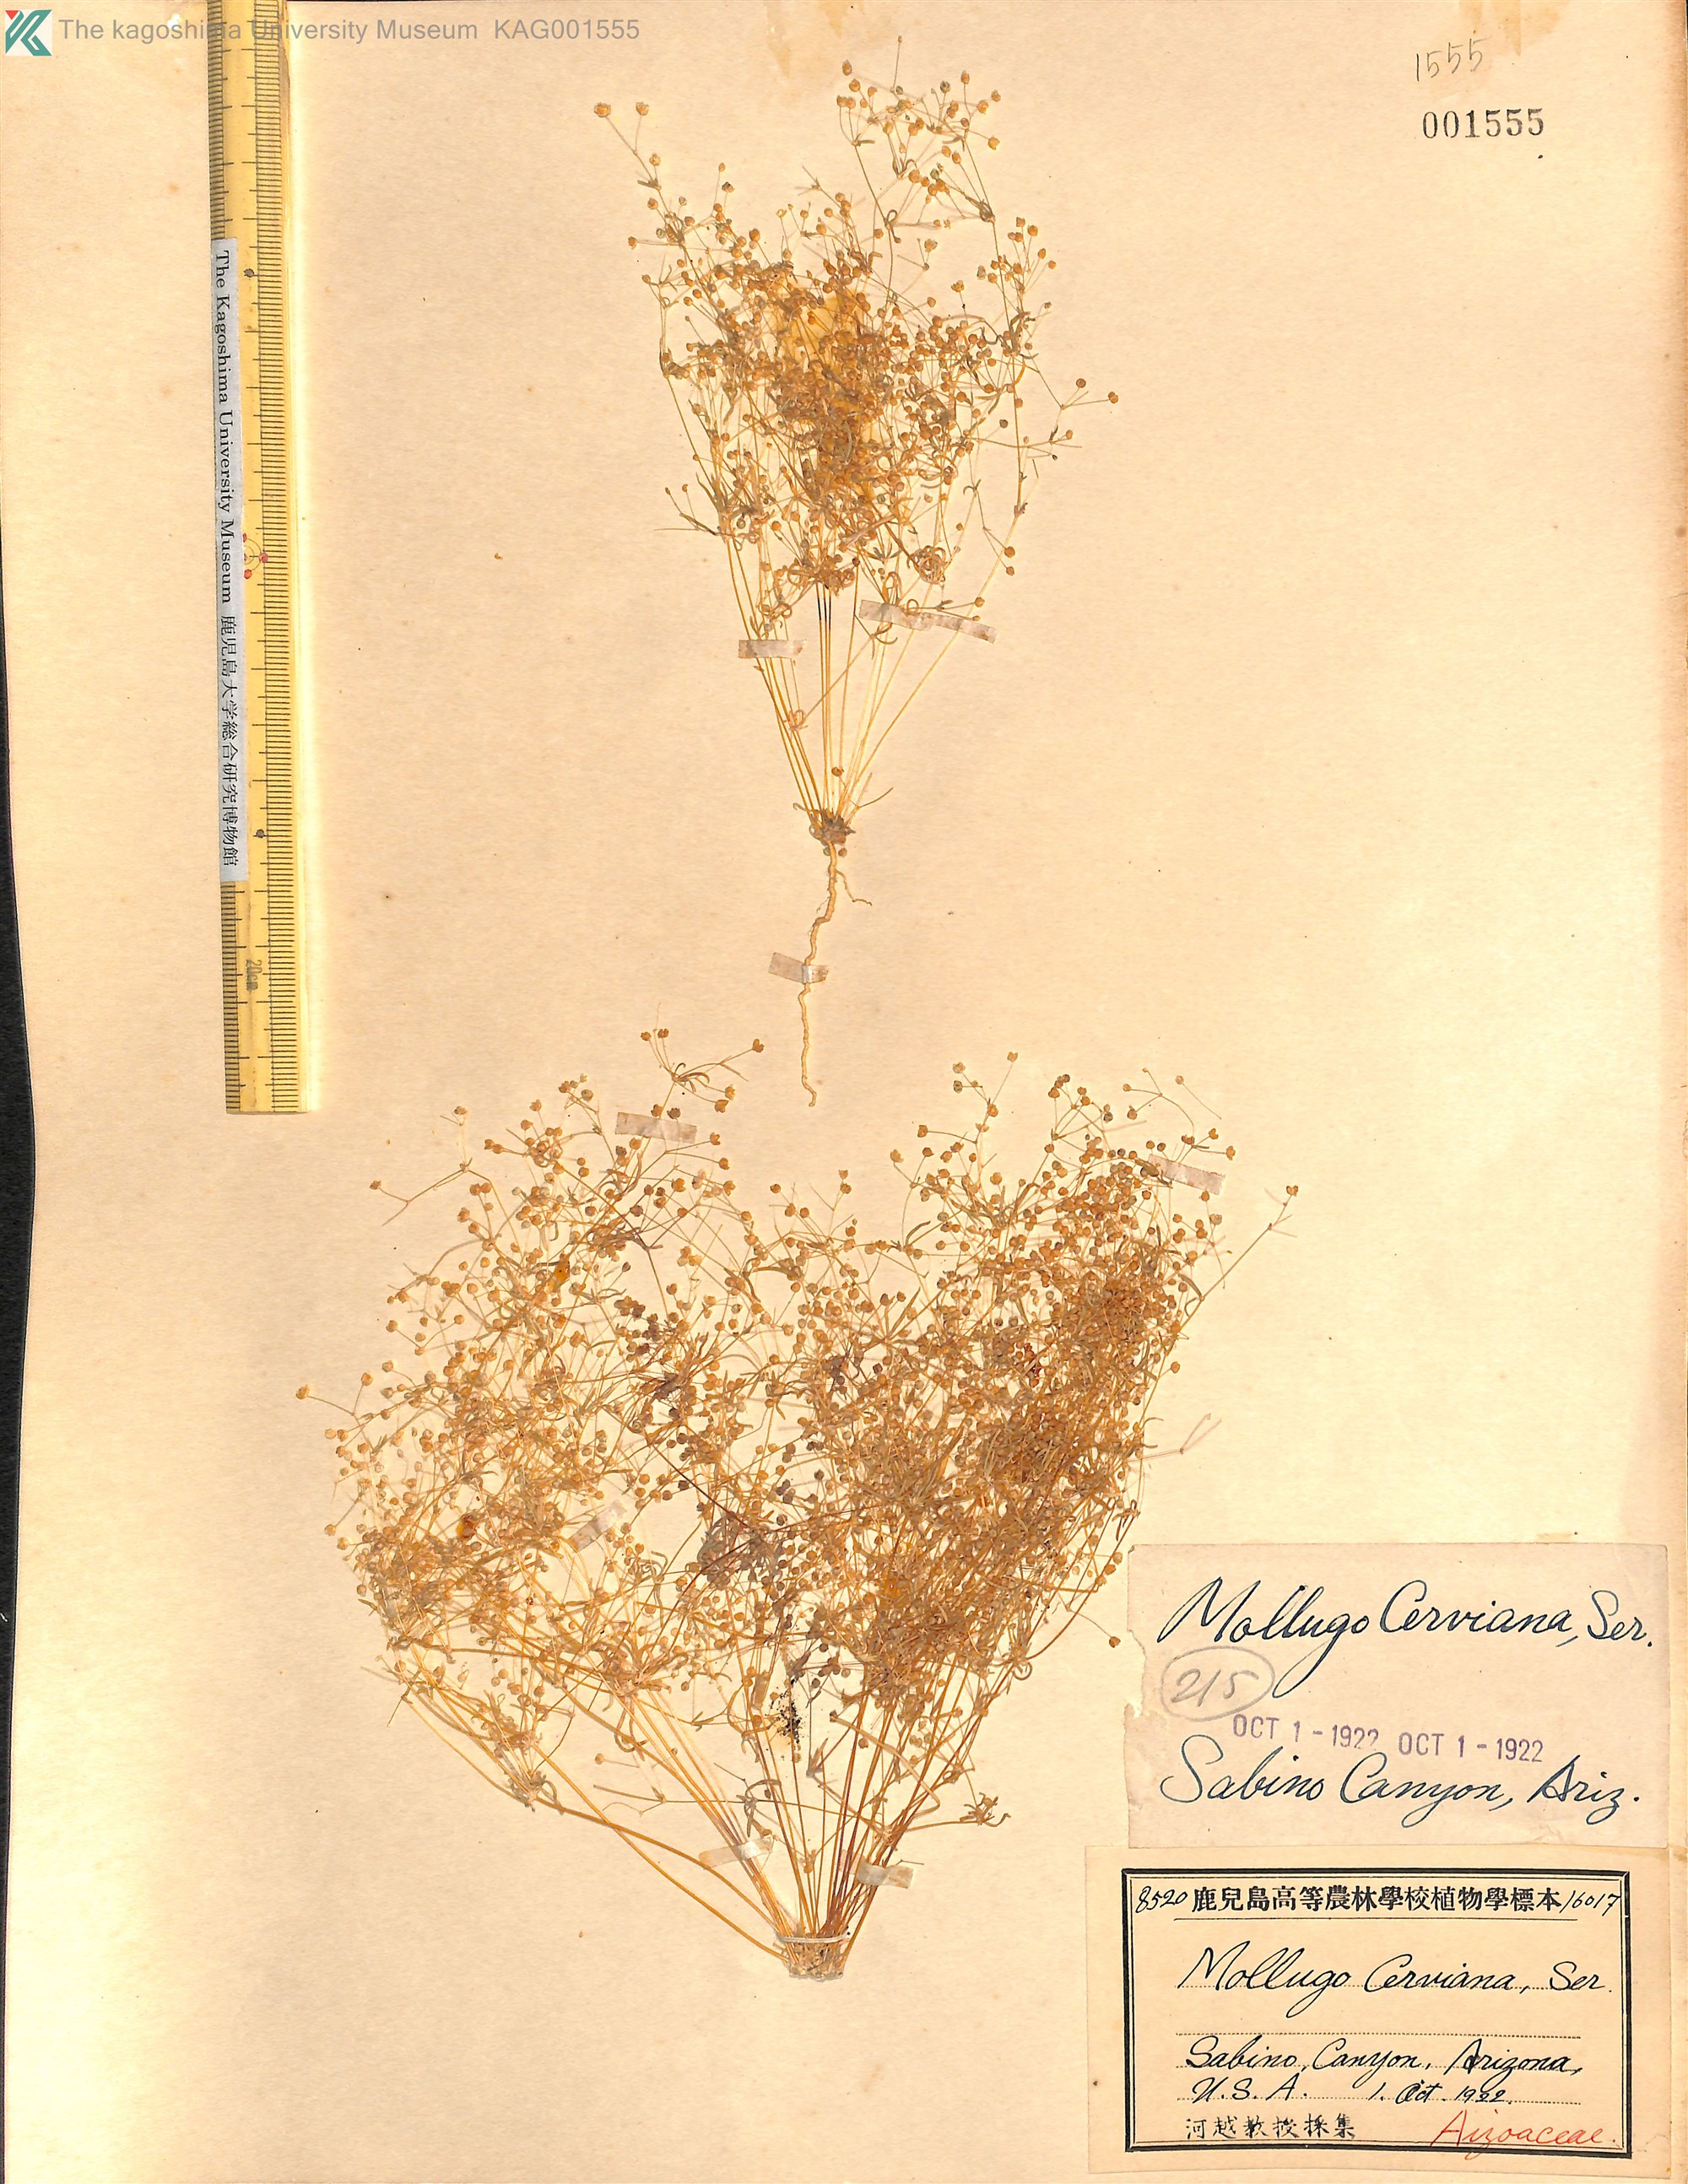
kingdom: Plantae
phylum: Tracheophyta
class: Magnoliopsida
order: Caryophyllales
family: Molluginaceae
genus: Hypertelis
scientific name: Hypertelis cerviana
